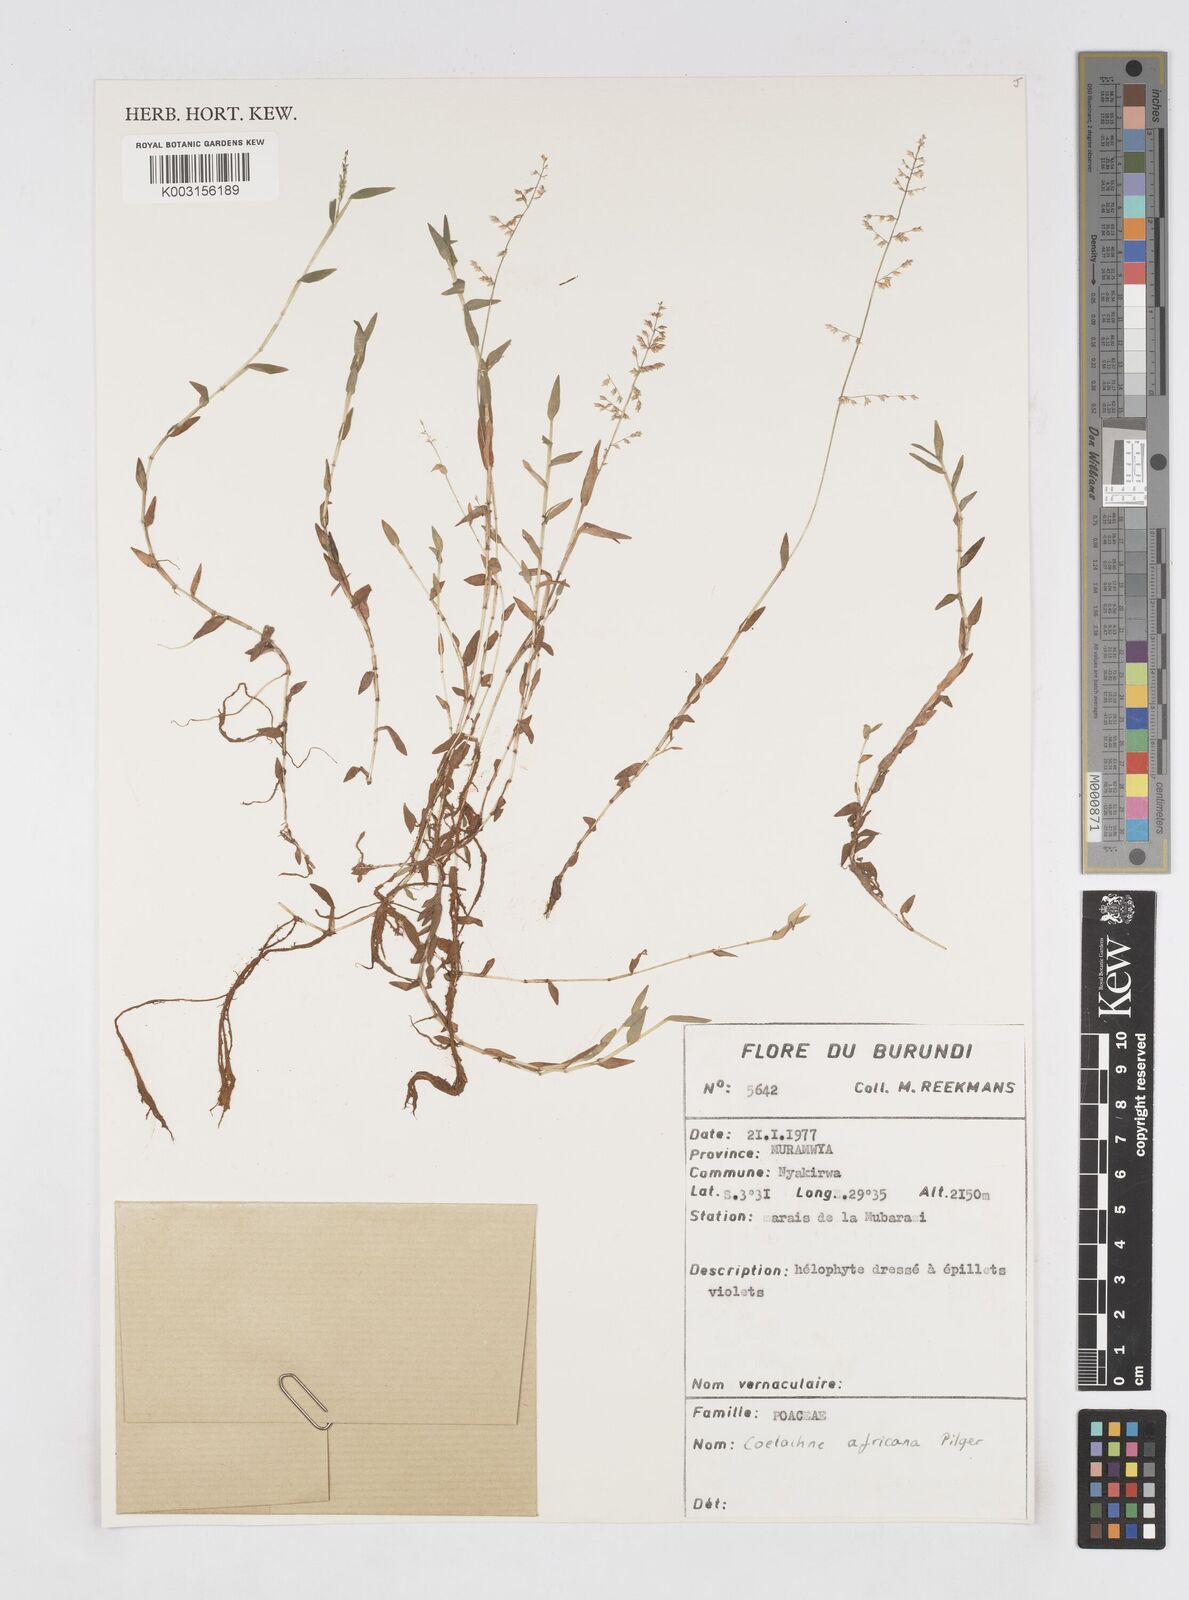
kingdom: Plantae
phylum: Tracheophyta
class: Liliopsida
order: Poales
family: Poaceae
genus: Coelachne
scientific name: Coelachne africana
